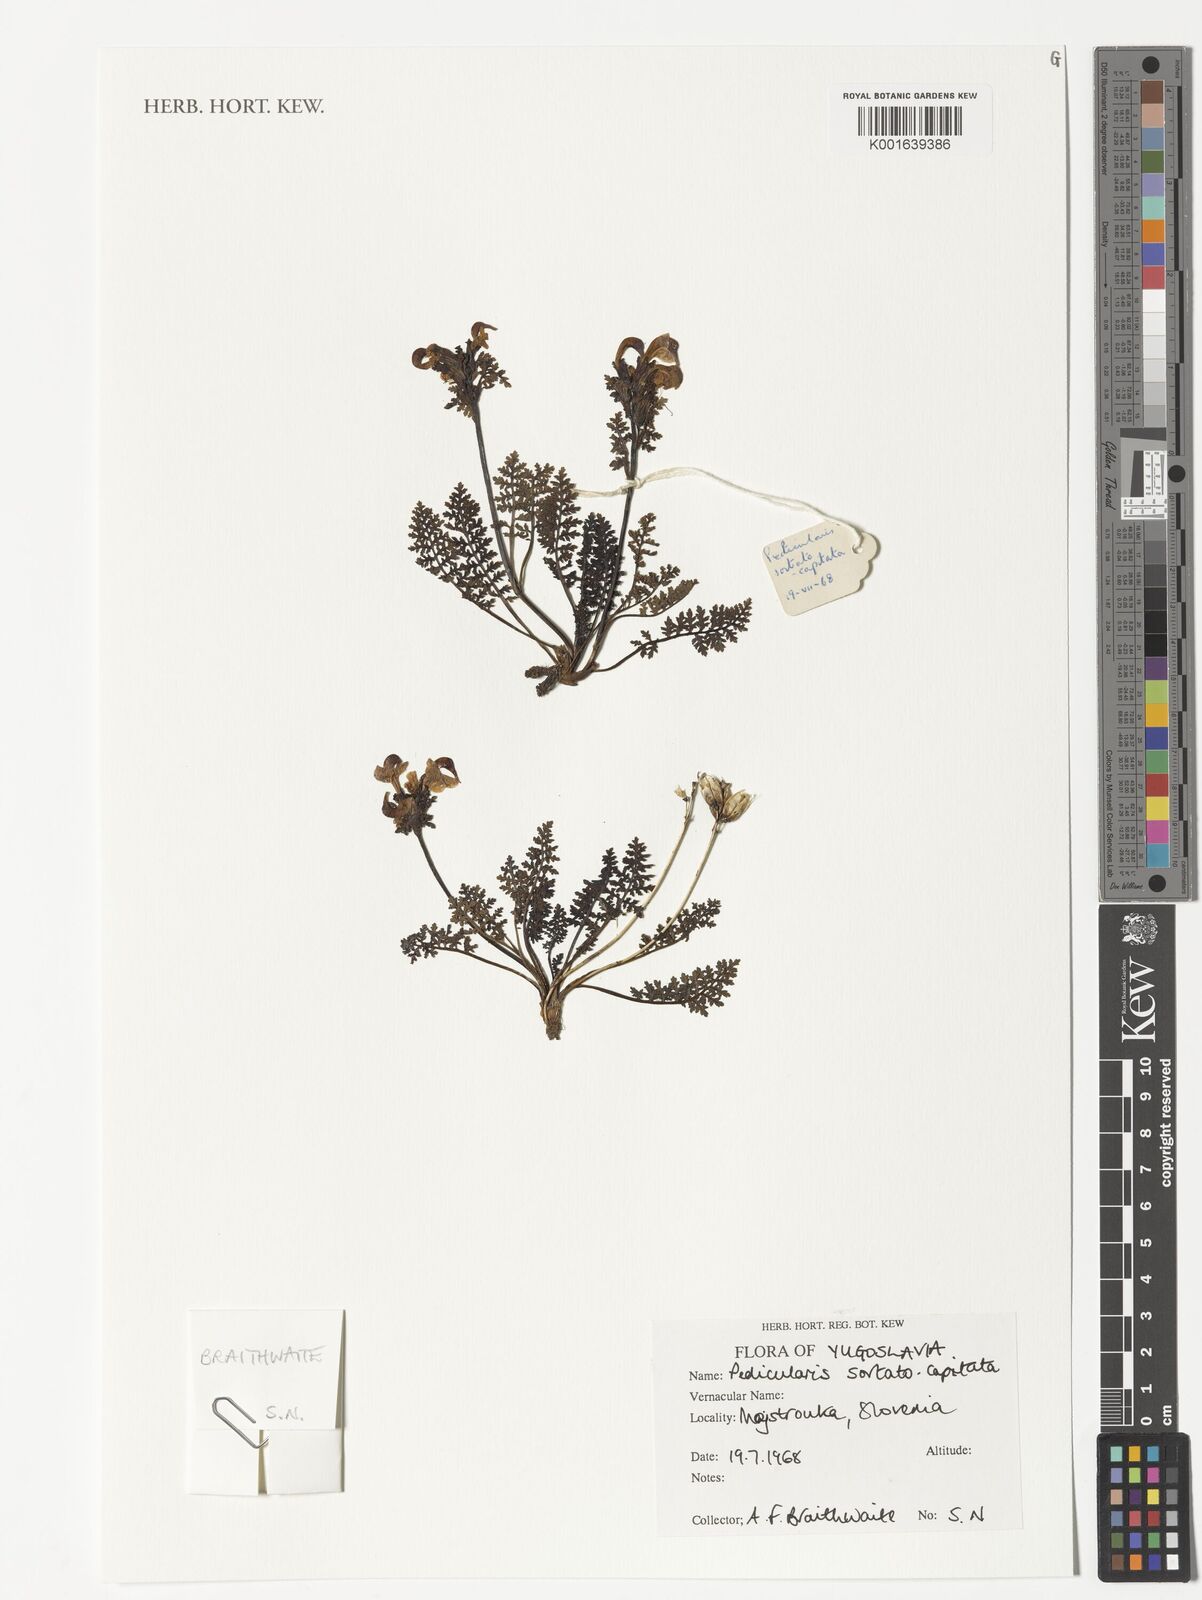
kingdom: Plantae
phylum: Tracheophyta
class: Magnoliopsida
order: Lamiales
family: Orobanchaceae
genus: Pedicularis
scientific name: Pedicularis rostratocapitata
